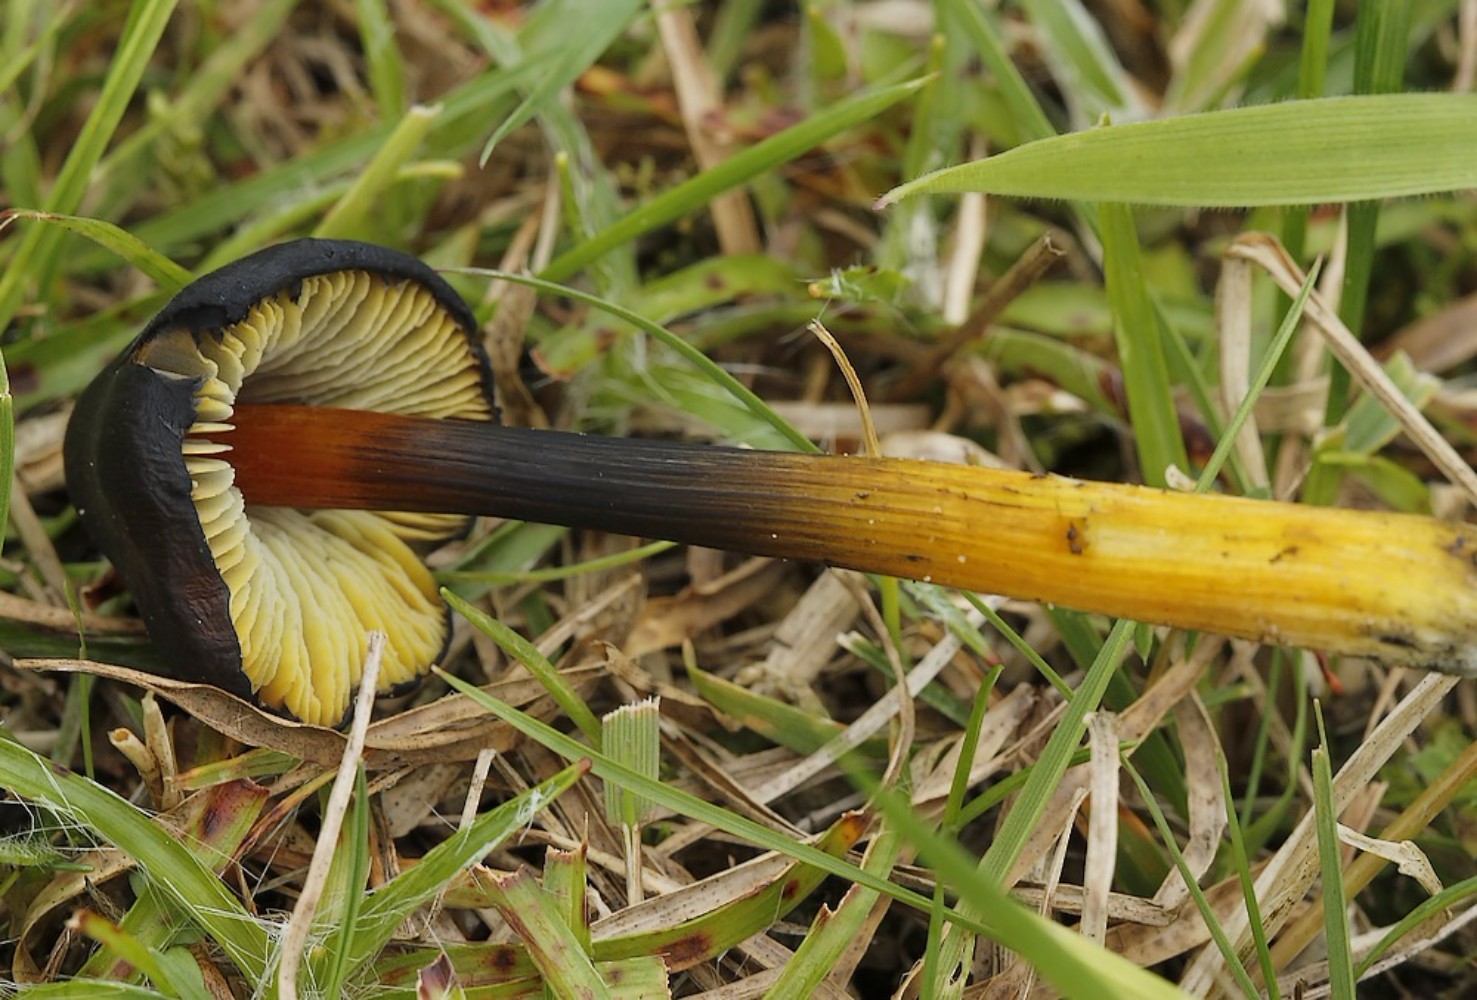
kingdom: Fungi
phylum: Basidiomycota
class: Agaricomycetes
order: Agaricales
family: Hygrophoraceae
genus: Hygrocybe
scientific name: Hygrocybe conica
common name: kegle-vokshat
